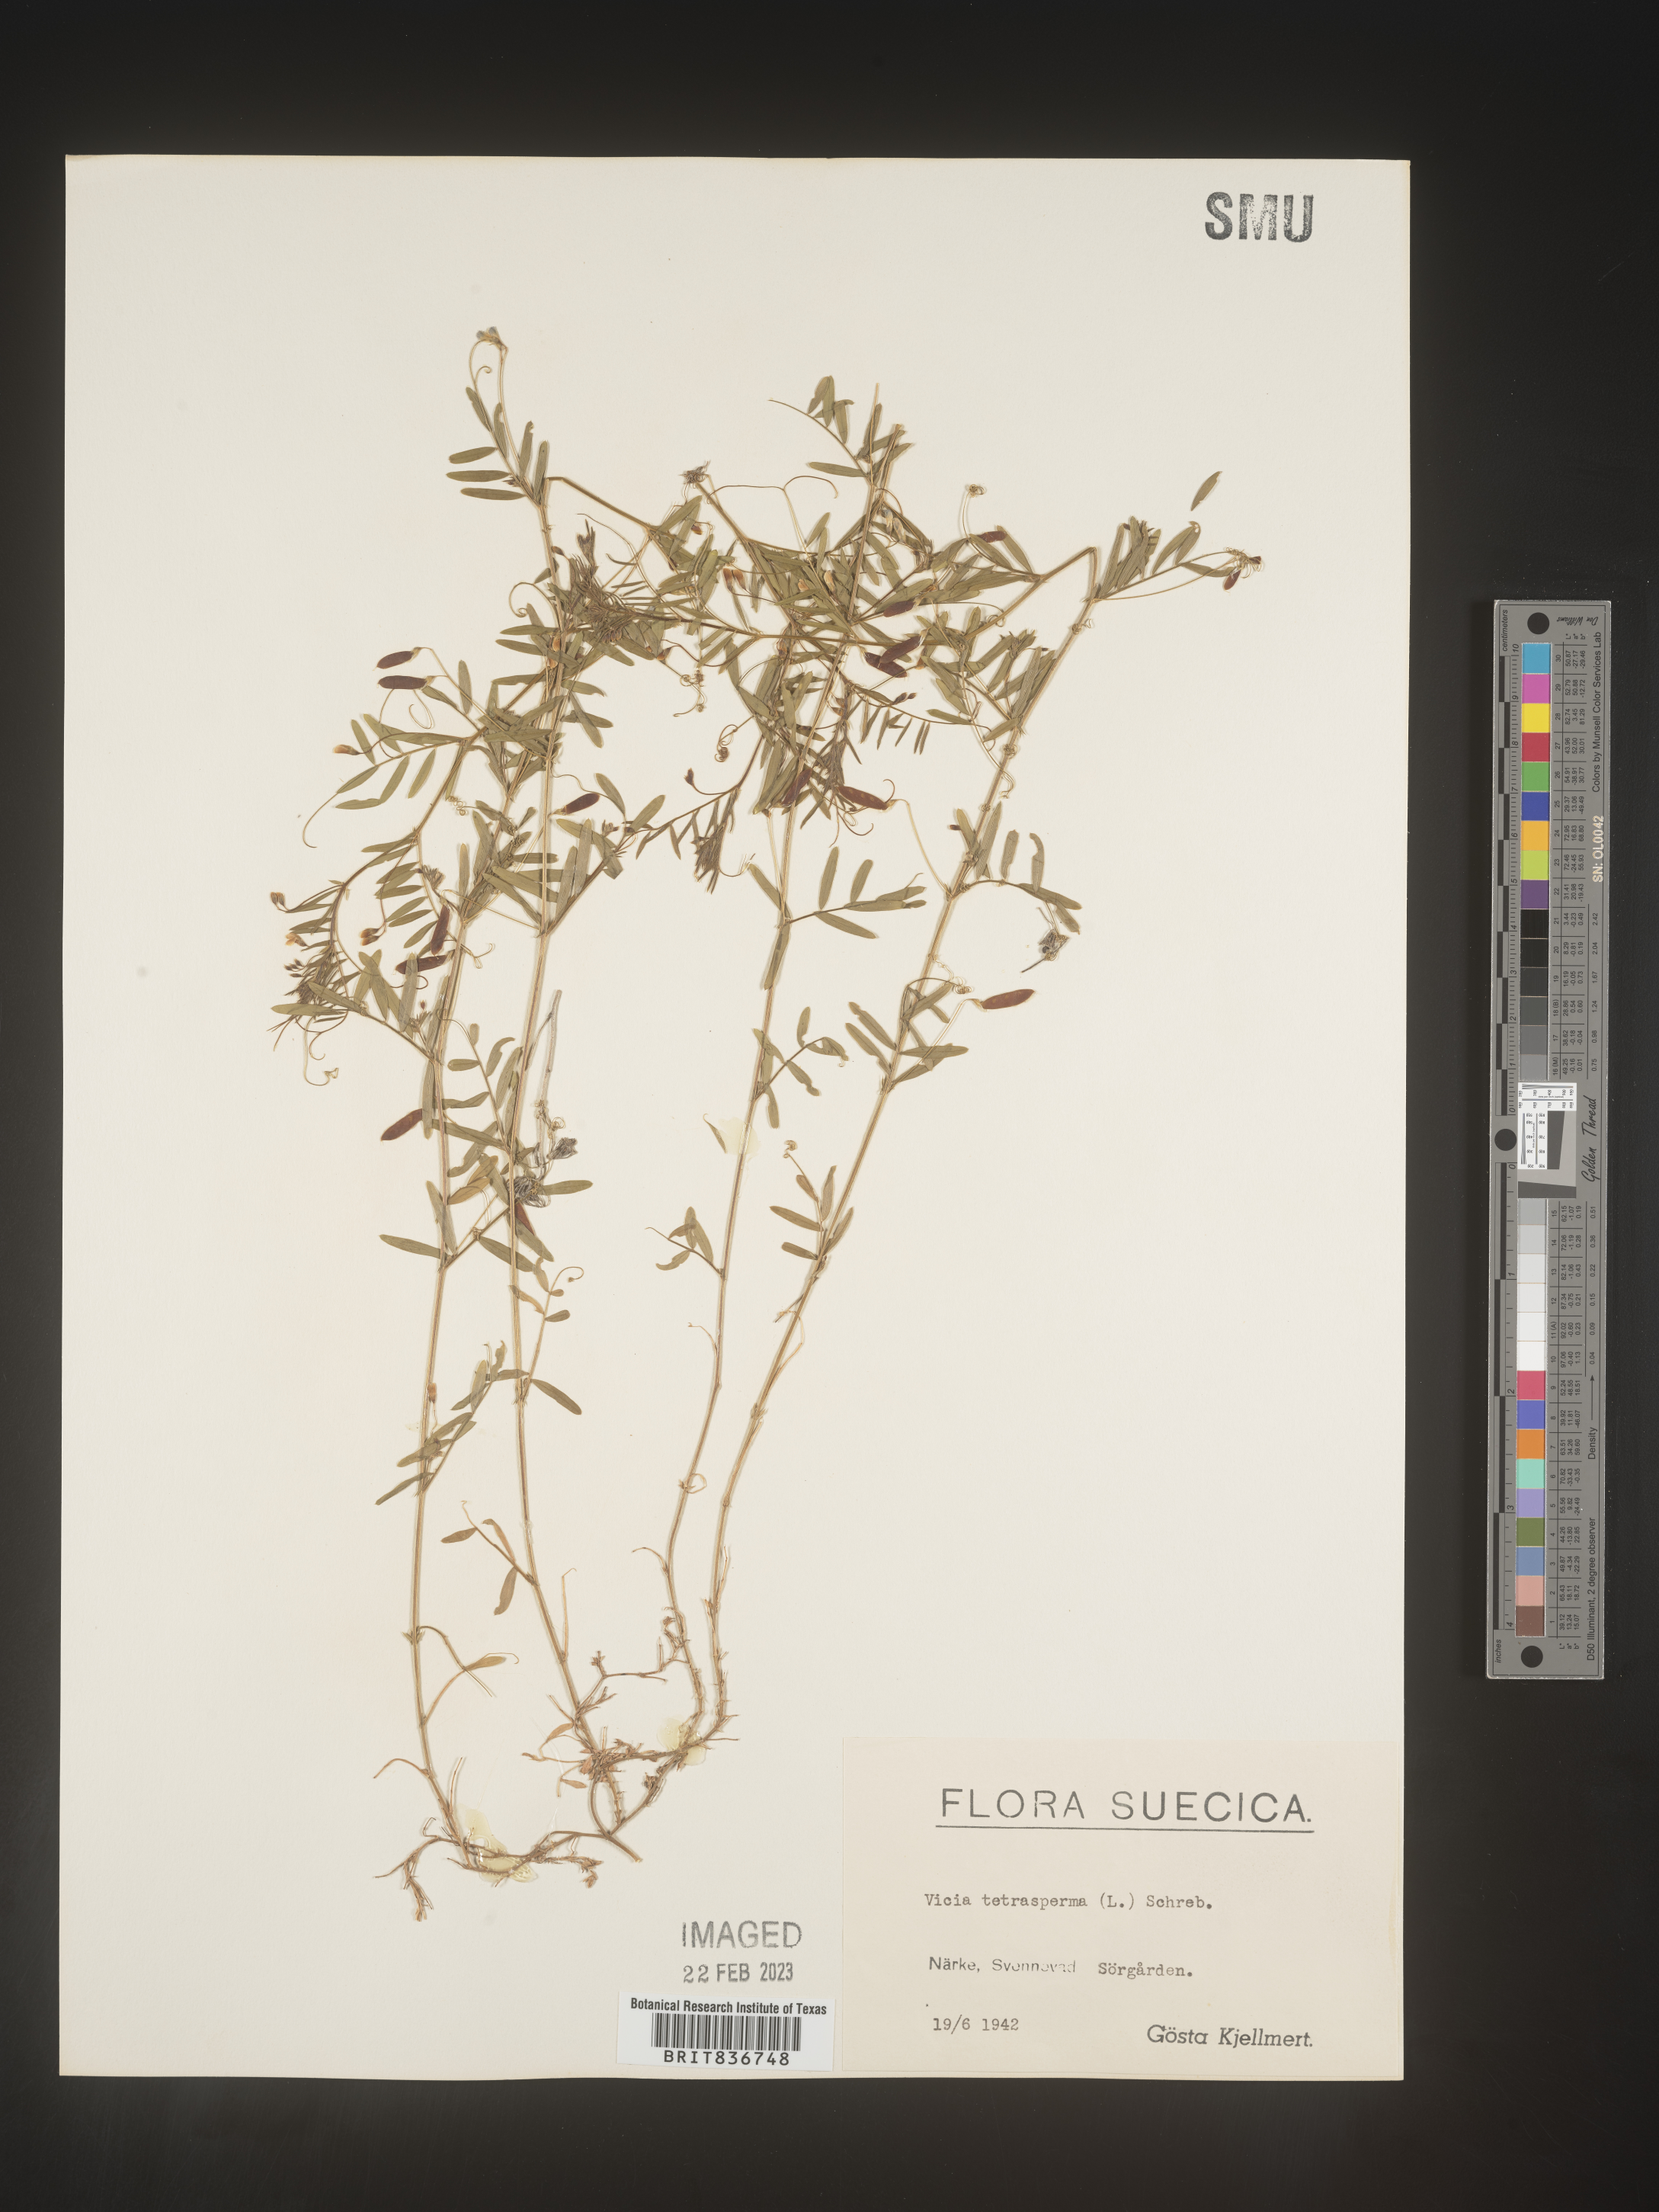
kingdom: Plantae
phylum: Tracheophyta
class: Magnoliopsida
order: Fabales
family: Fabaceae
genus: Vicia
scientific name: Vicia
